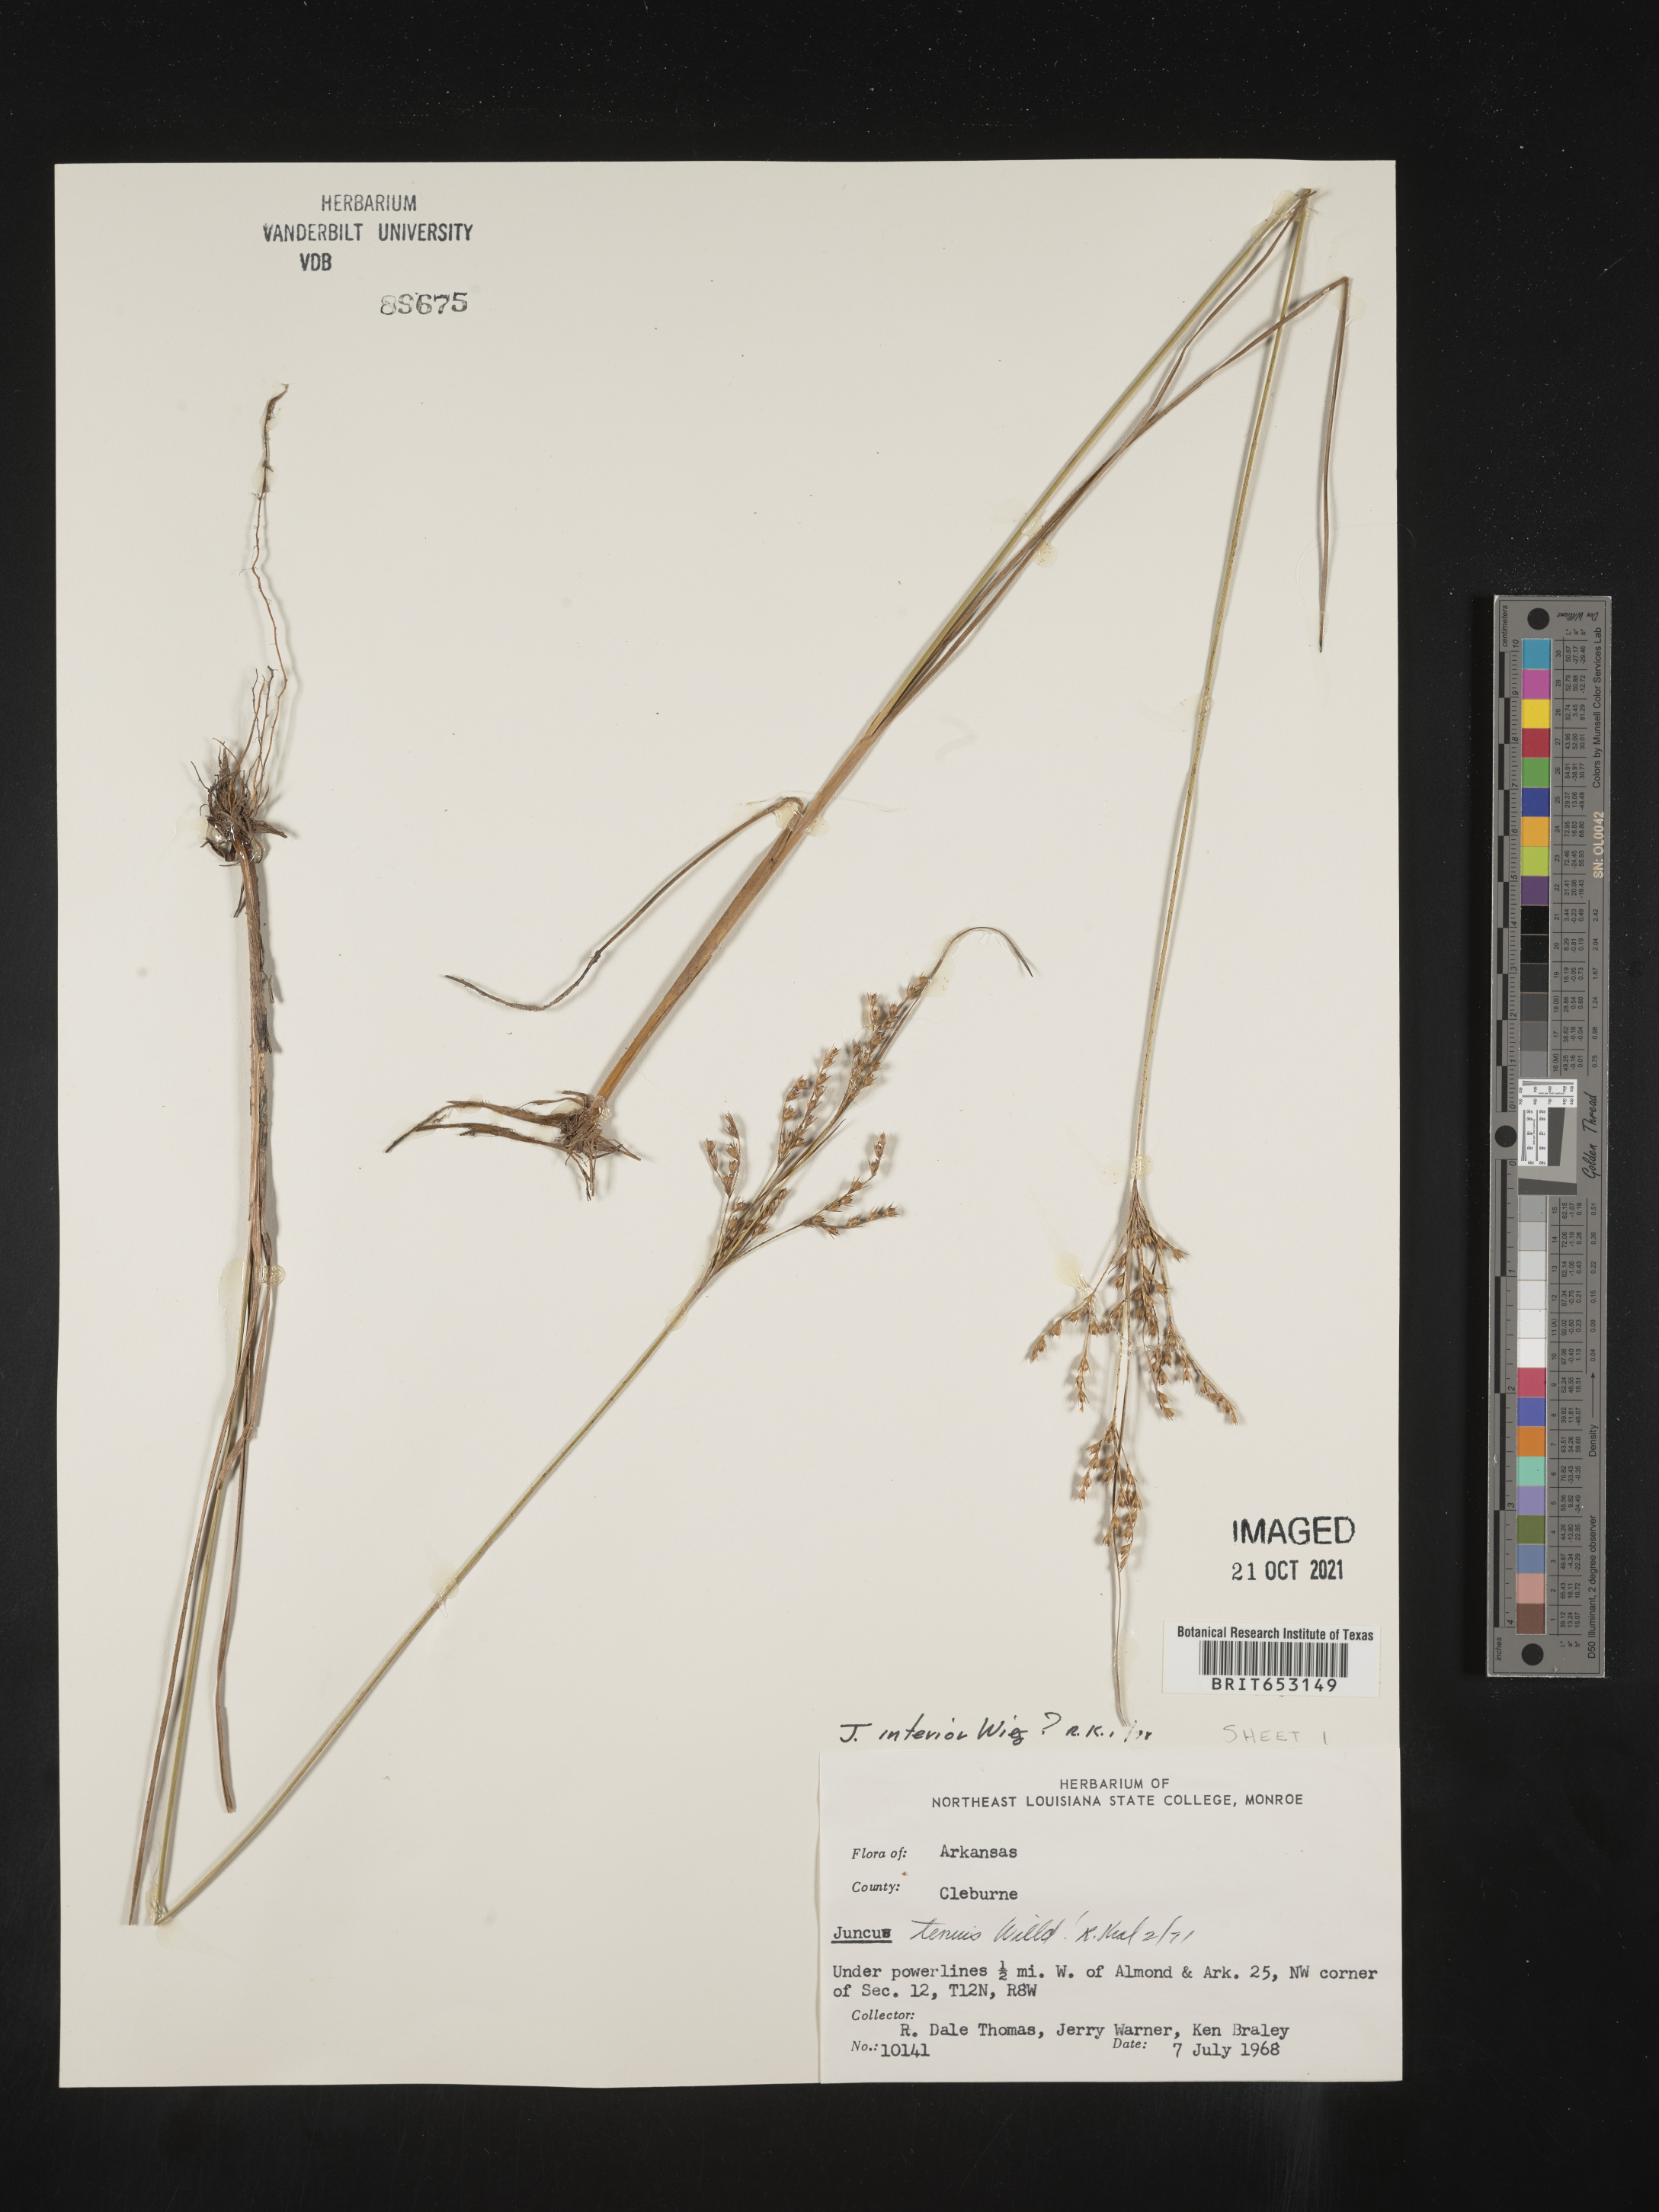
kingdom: Plantae
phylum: Tracheophyta
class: Liliopsida
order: Poales
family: Juncaceae
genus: Juncus
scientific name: Juncus interior
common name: Interior rush
